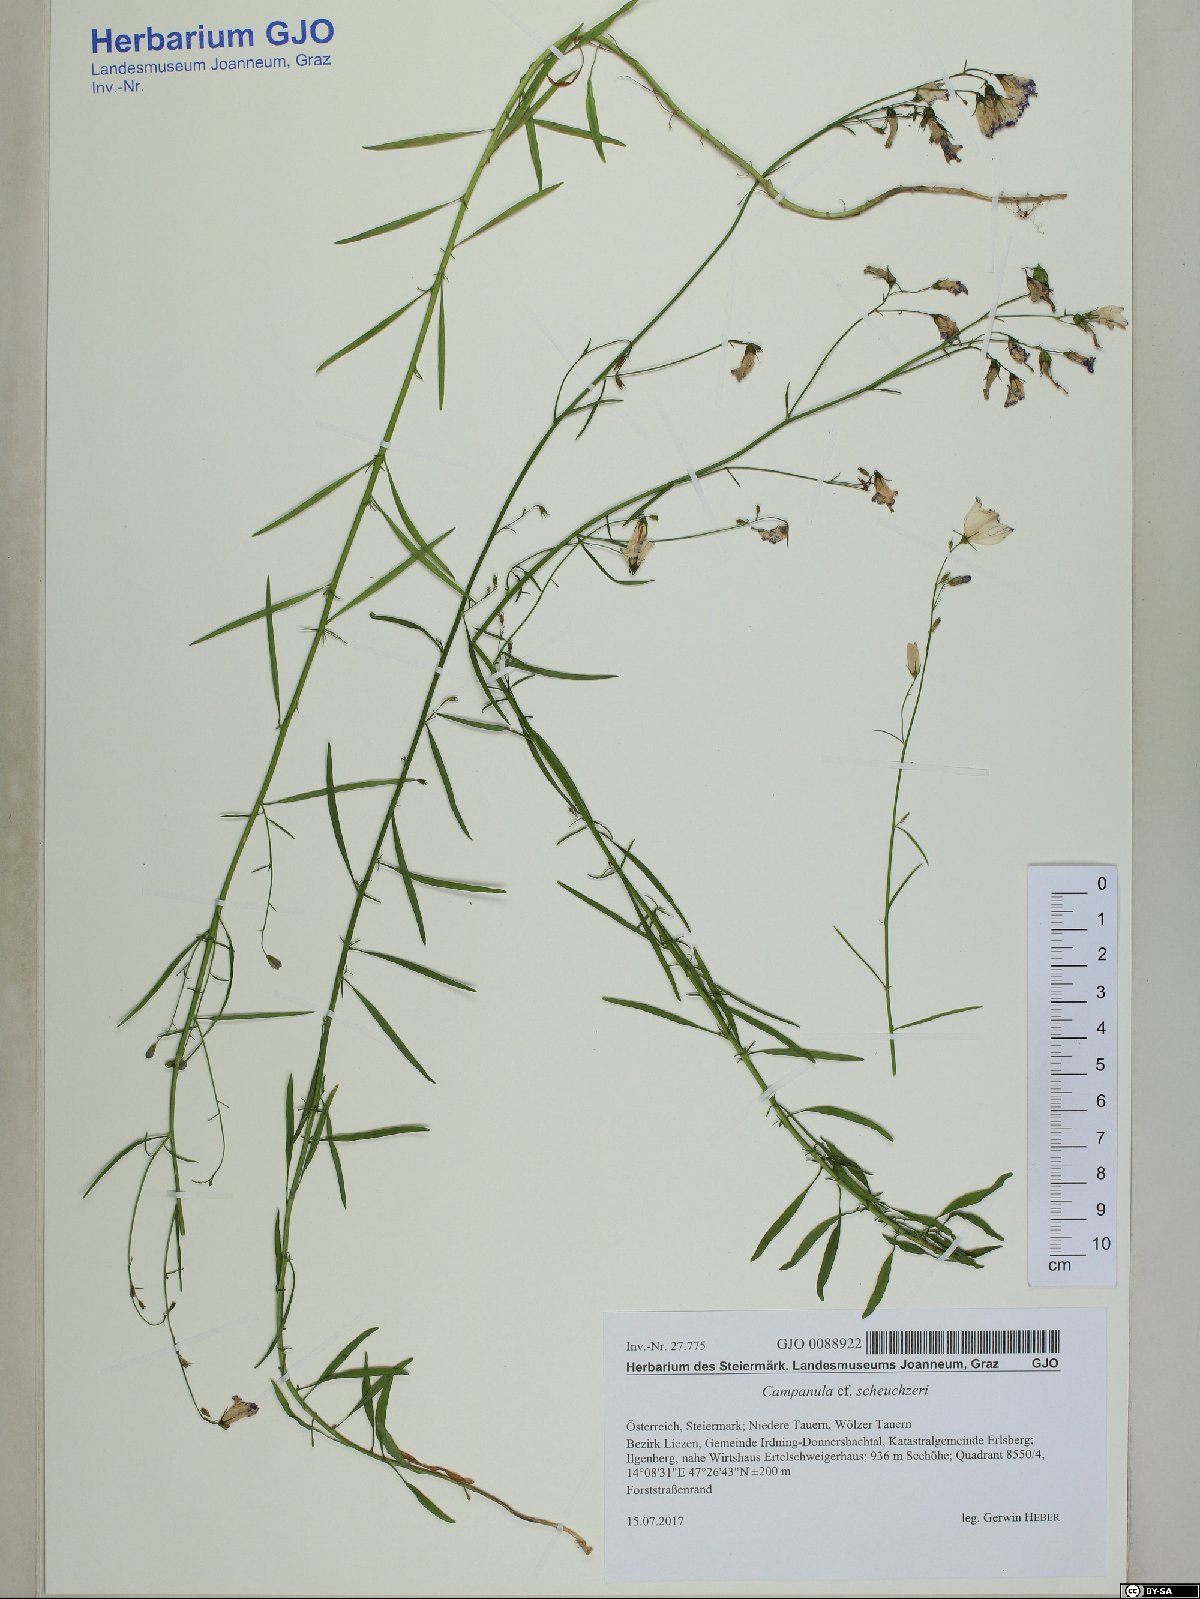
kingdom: Plantae
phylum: Tracheophyta
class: Magnoliopsida
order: Asterales
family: Campanulaceae
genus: Campanula
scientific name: Campanula scheuchzeri
